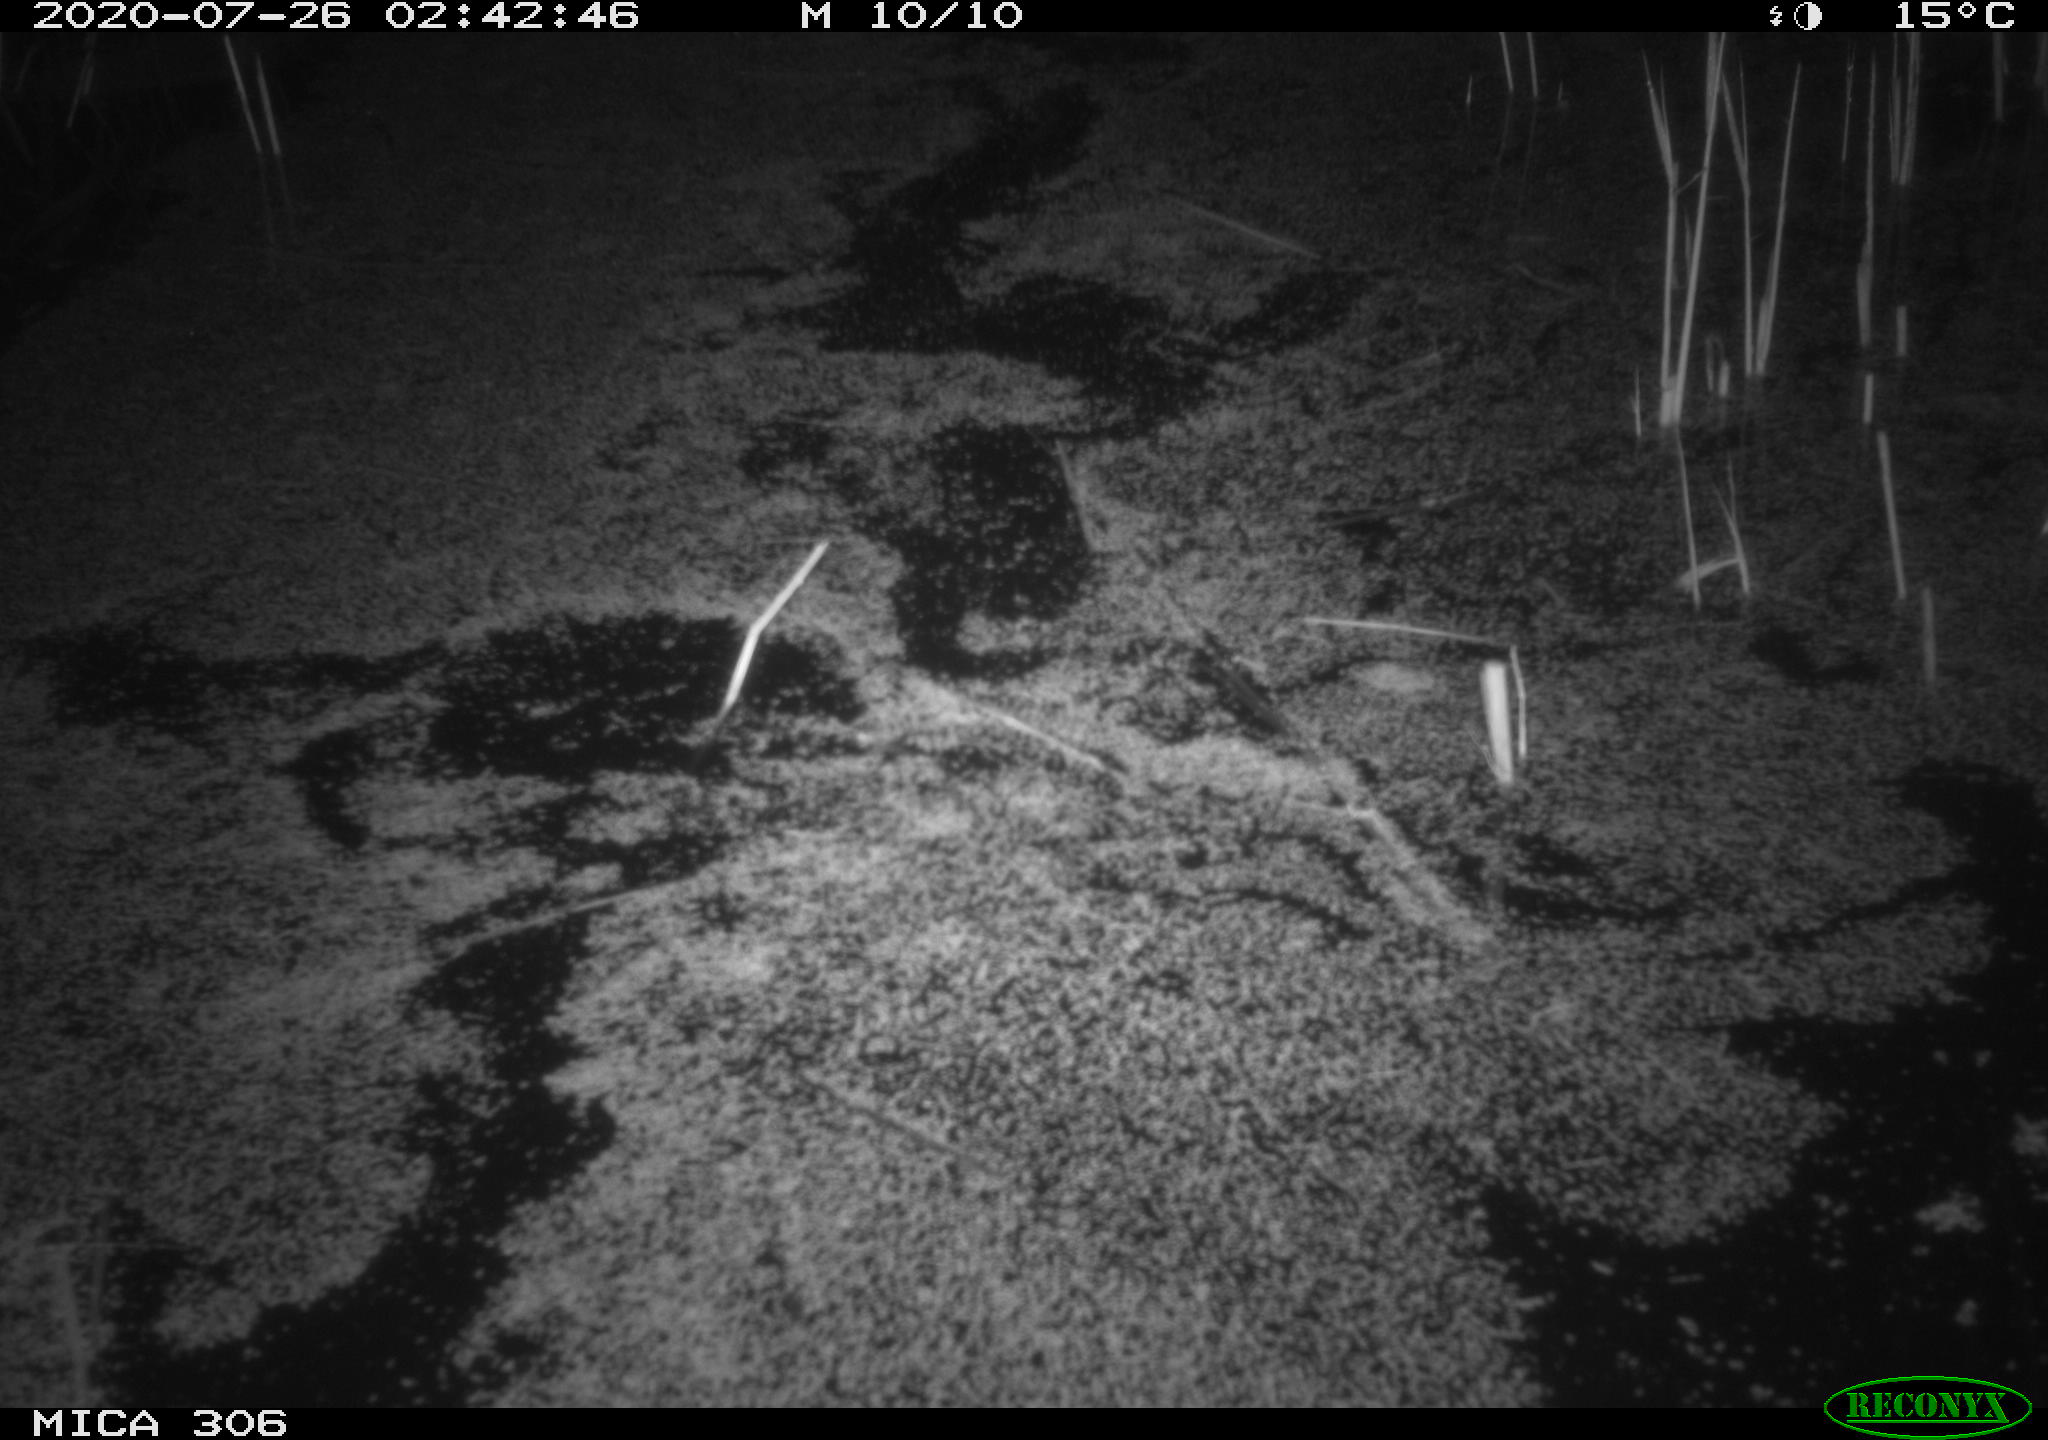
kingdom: Animalia
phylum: Chordata
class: Mammalia
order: Rodentia
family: Cricetidae
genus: Ondatra
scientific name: Ondatra zibethicus
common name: Muskrat
